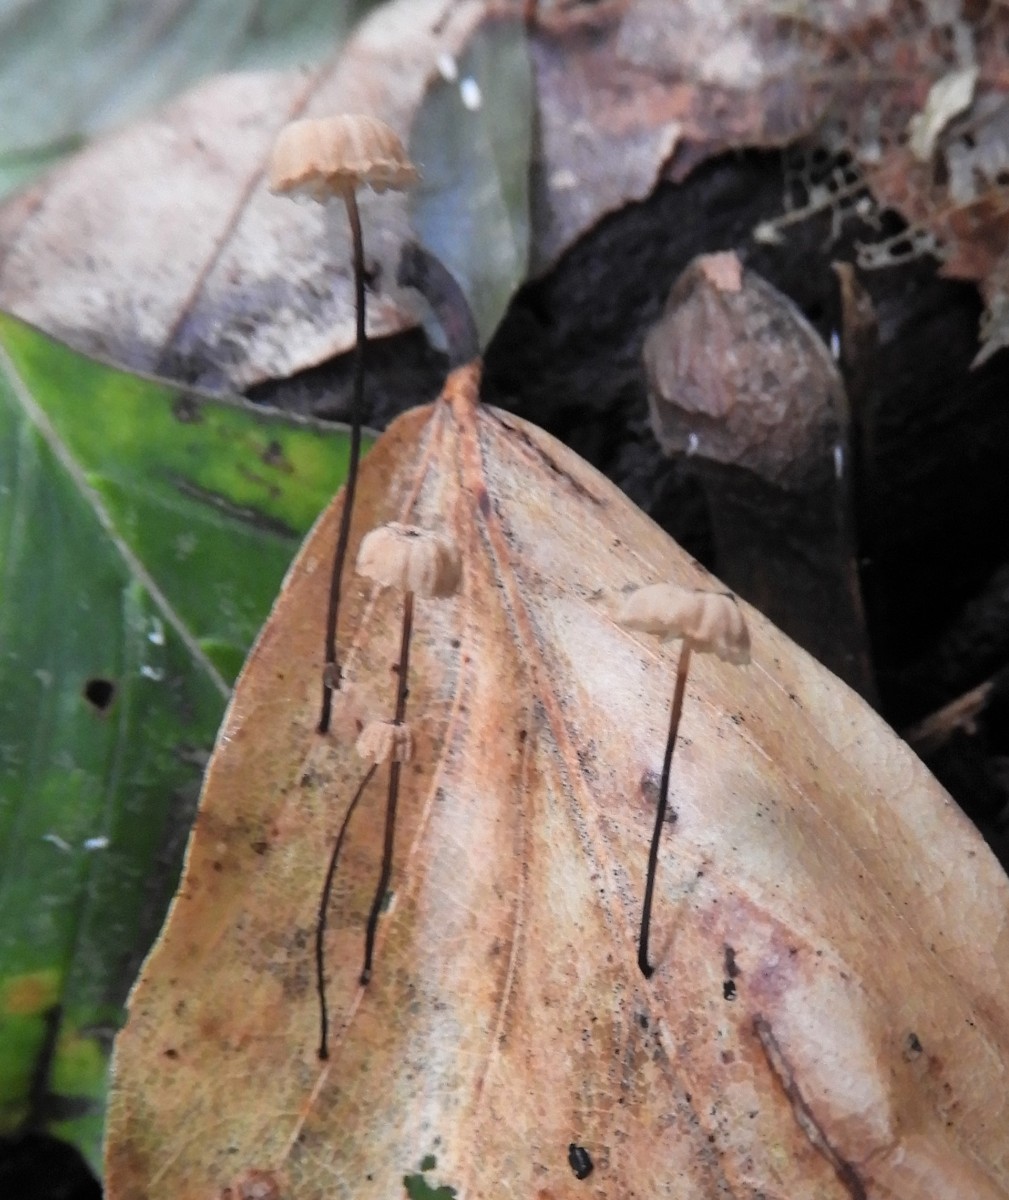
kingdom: Fungi
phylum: Basidiomycota
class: Agaricomycetes
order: Agaricales
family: Marasmiaceae
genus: Marasmius
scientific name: Marasmius rotula
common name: hjul-bruskhat
